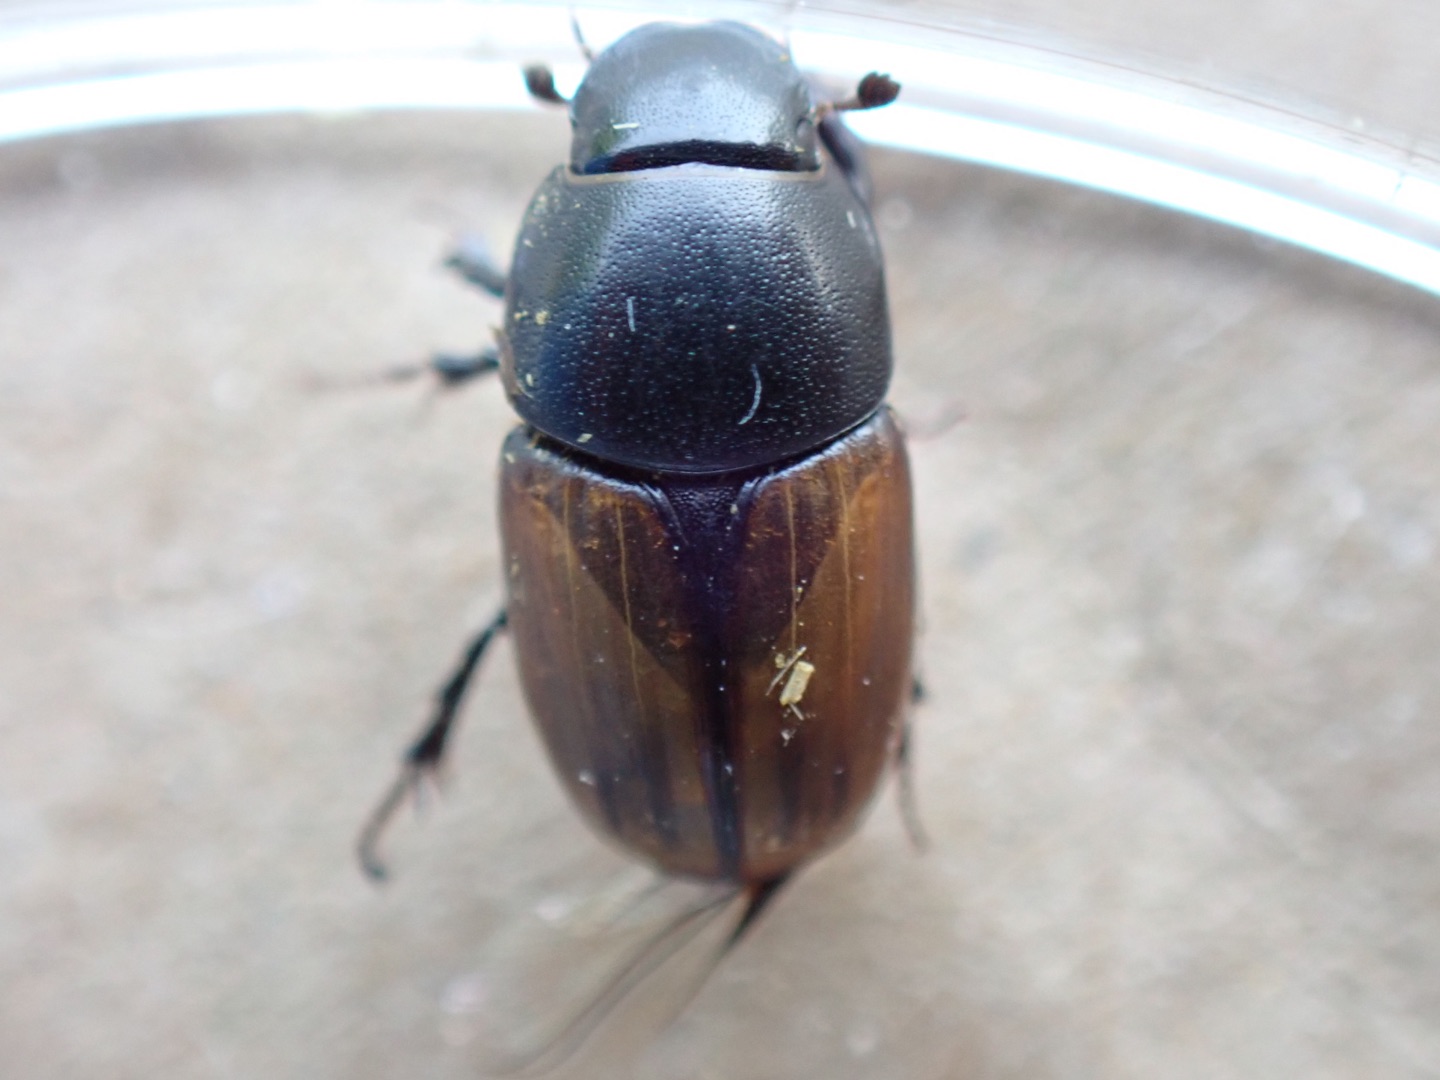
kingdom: Animalia
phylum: Arthropoda
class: Insecta
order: Coleoptera
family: Scarabaeidae
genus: Colobopterus
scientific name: Colobopterus erraticus
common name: Vagabonderende møgbille
